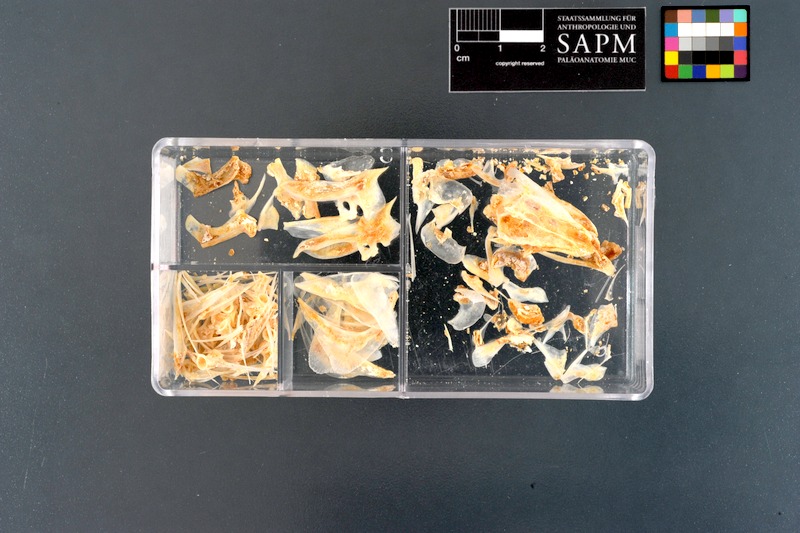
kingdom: Animalia
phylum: Chordata
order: Perciformes
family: Caesionidae
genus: Caesio
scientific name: Caesio
